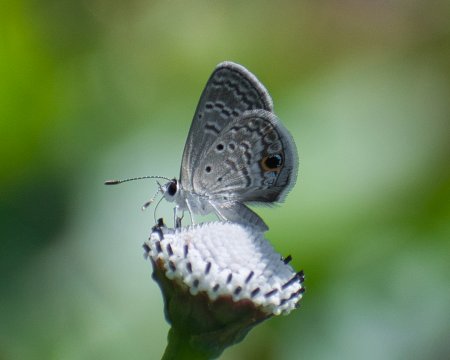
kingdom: Animalia
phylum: Arthropoda
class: Insecta
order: Lepidoptera
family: Lycaenidae
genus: Hemiargus
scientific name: Hemiargus ceraunus
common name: Ceraunus Blue
